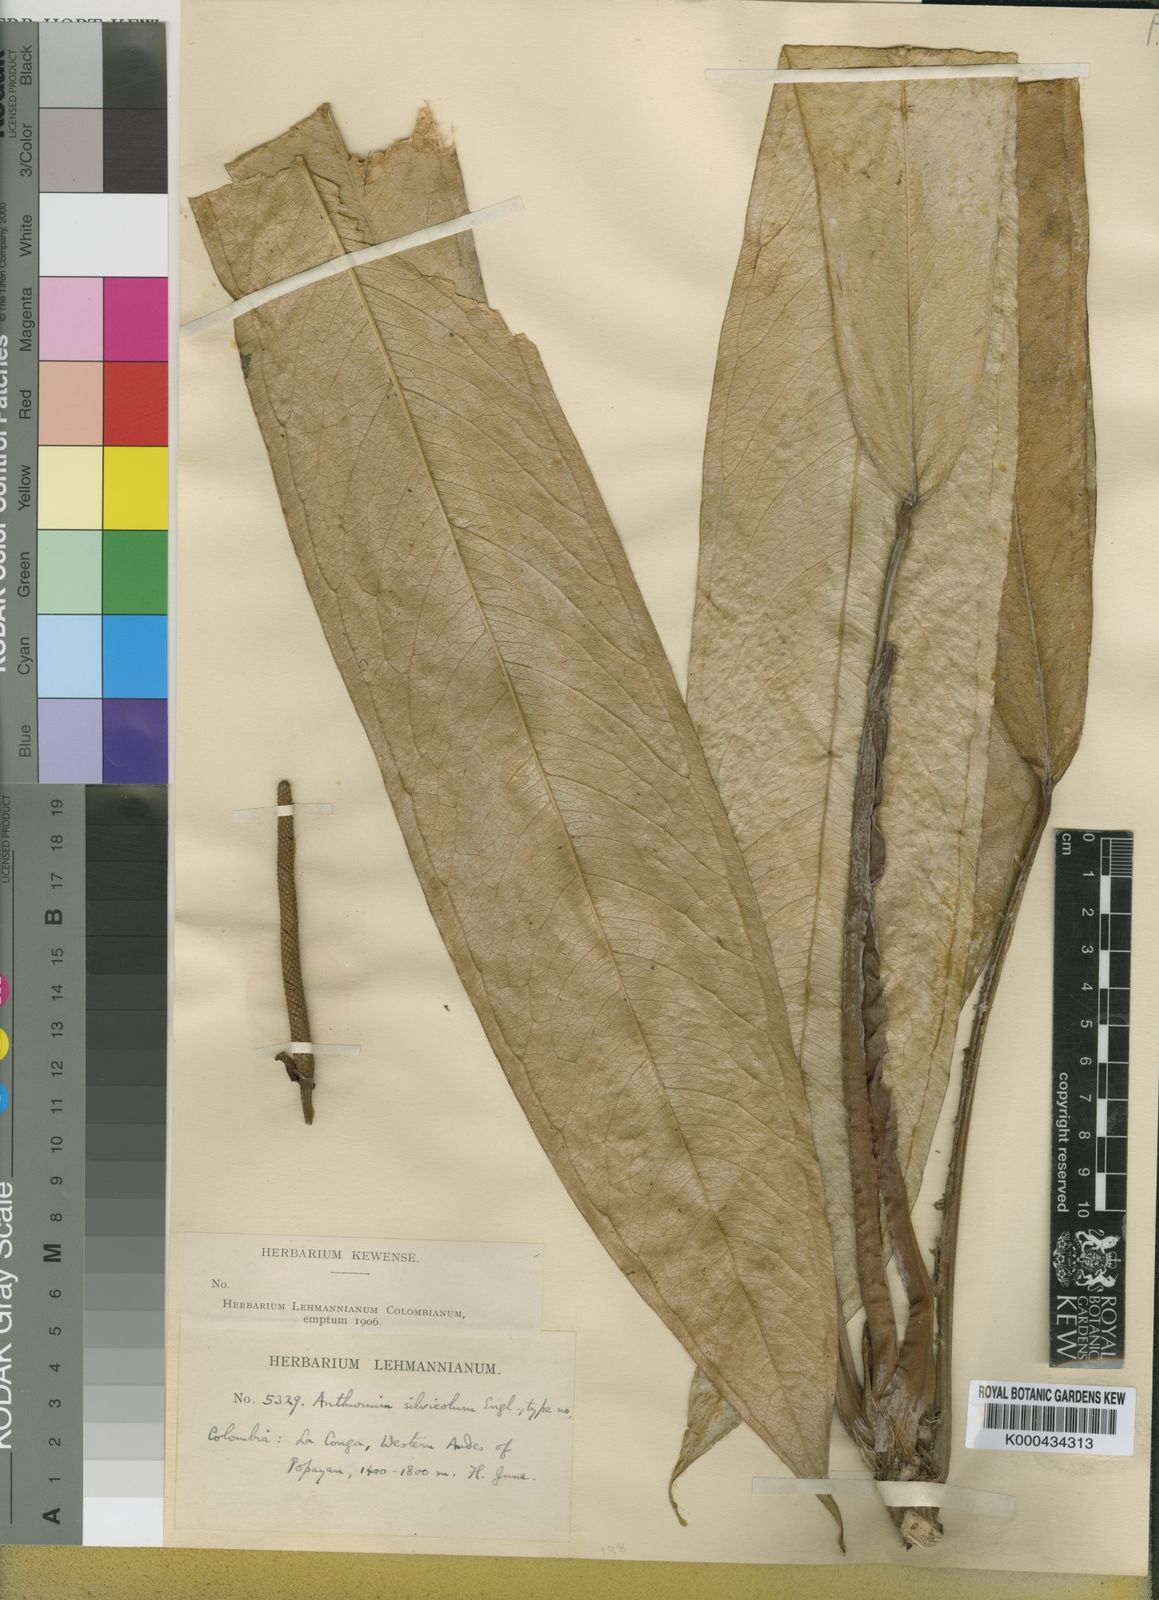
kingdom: Plantae
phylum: Tracheophyta
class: Liliopsida
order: Alismatales
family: Araceae
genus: Anthurium
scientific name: Anthurium silvicola
